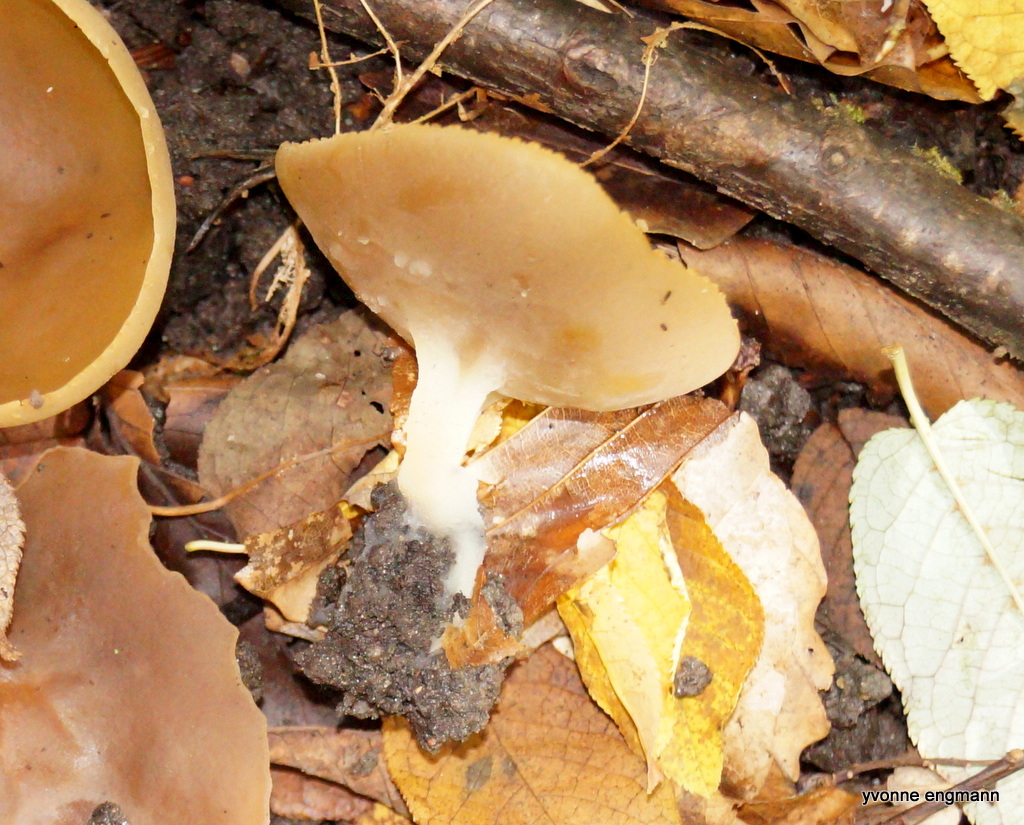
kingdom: Fungi
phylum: Ascomycota
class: Pezizomycetes
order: Pezizales
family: Pezizaceae
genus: Peziza
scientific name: Peziza
